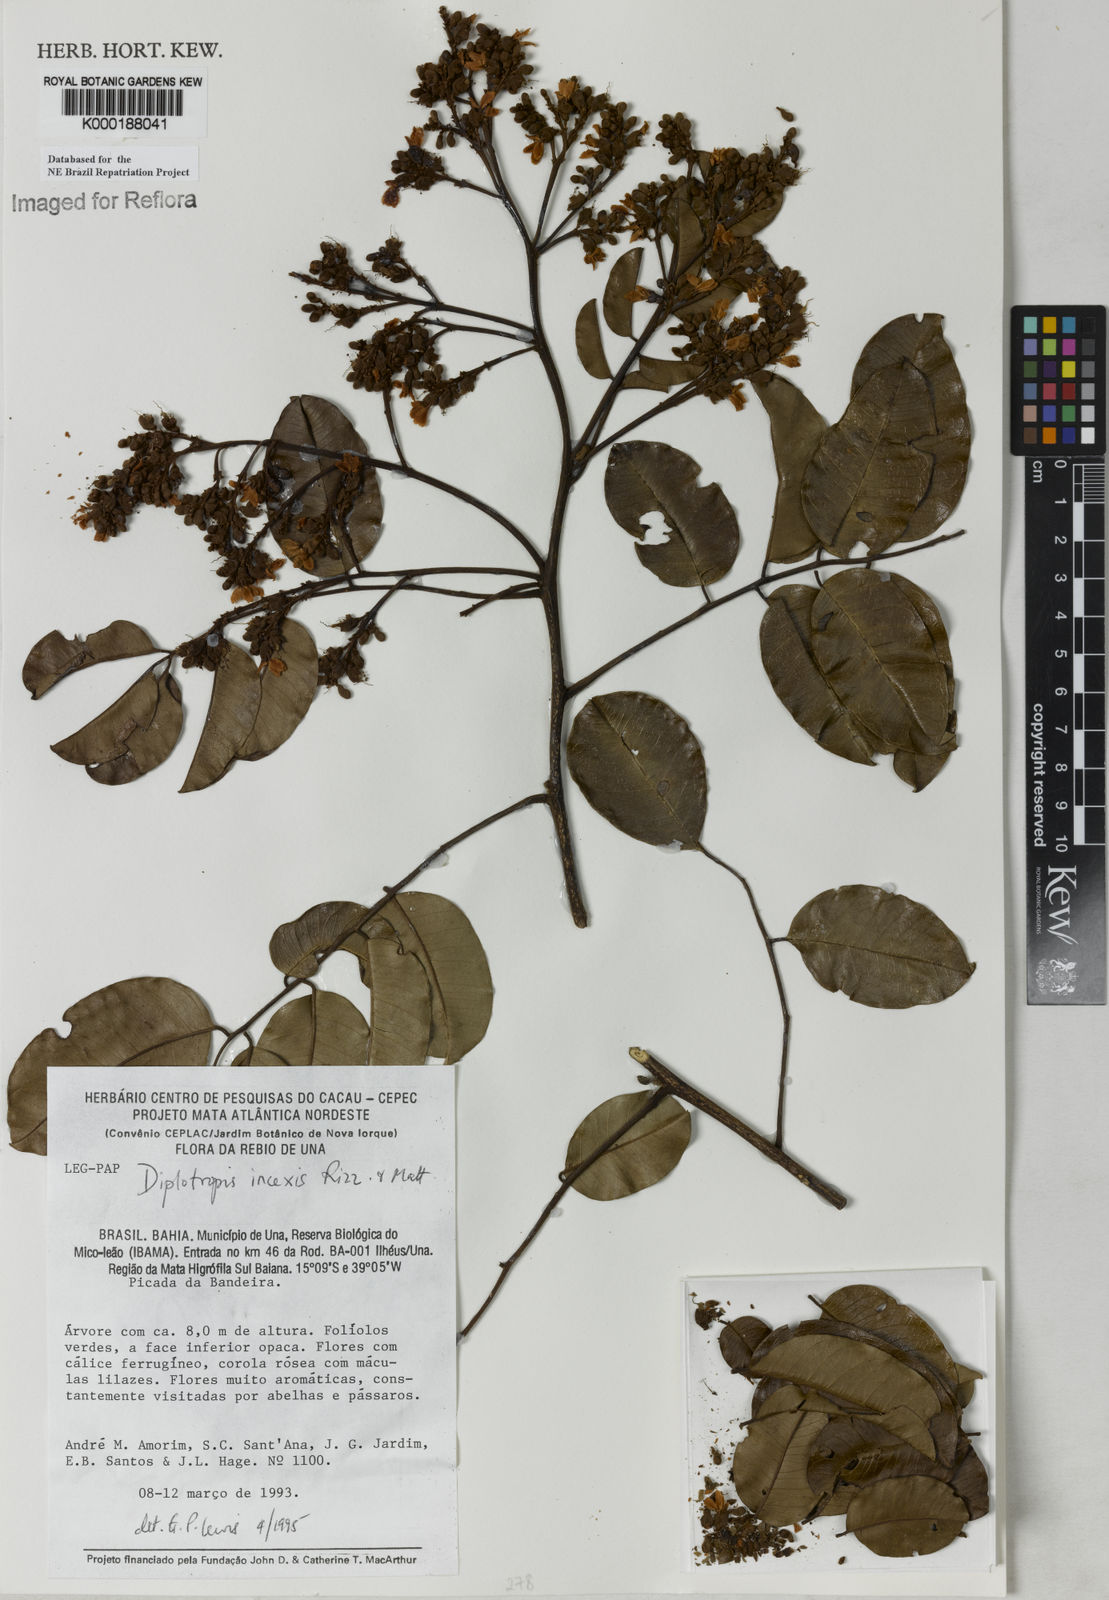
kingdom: Plantae
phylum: Tracheophyta
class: Magnoliopsida
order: Fabales
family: Fabaceae
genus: Diplotropis
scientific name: Diplotropis incexis
